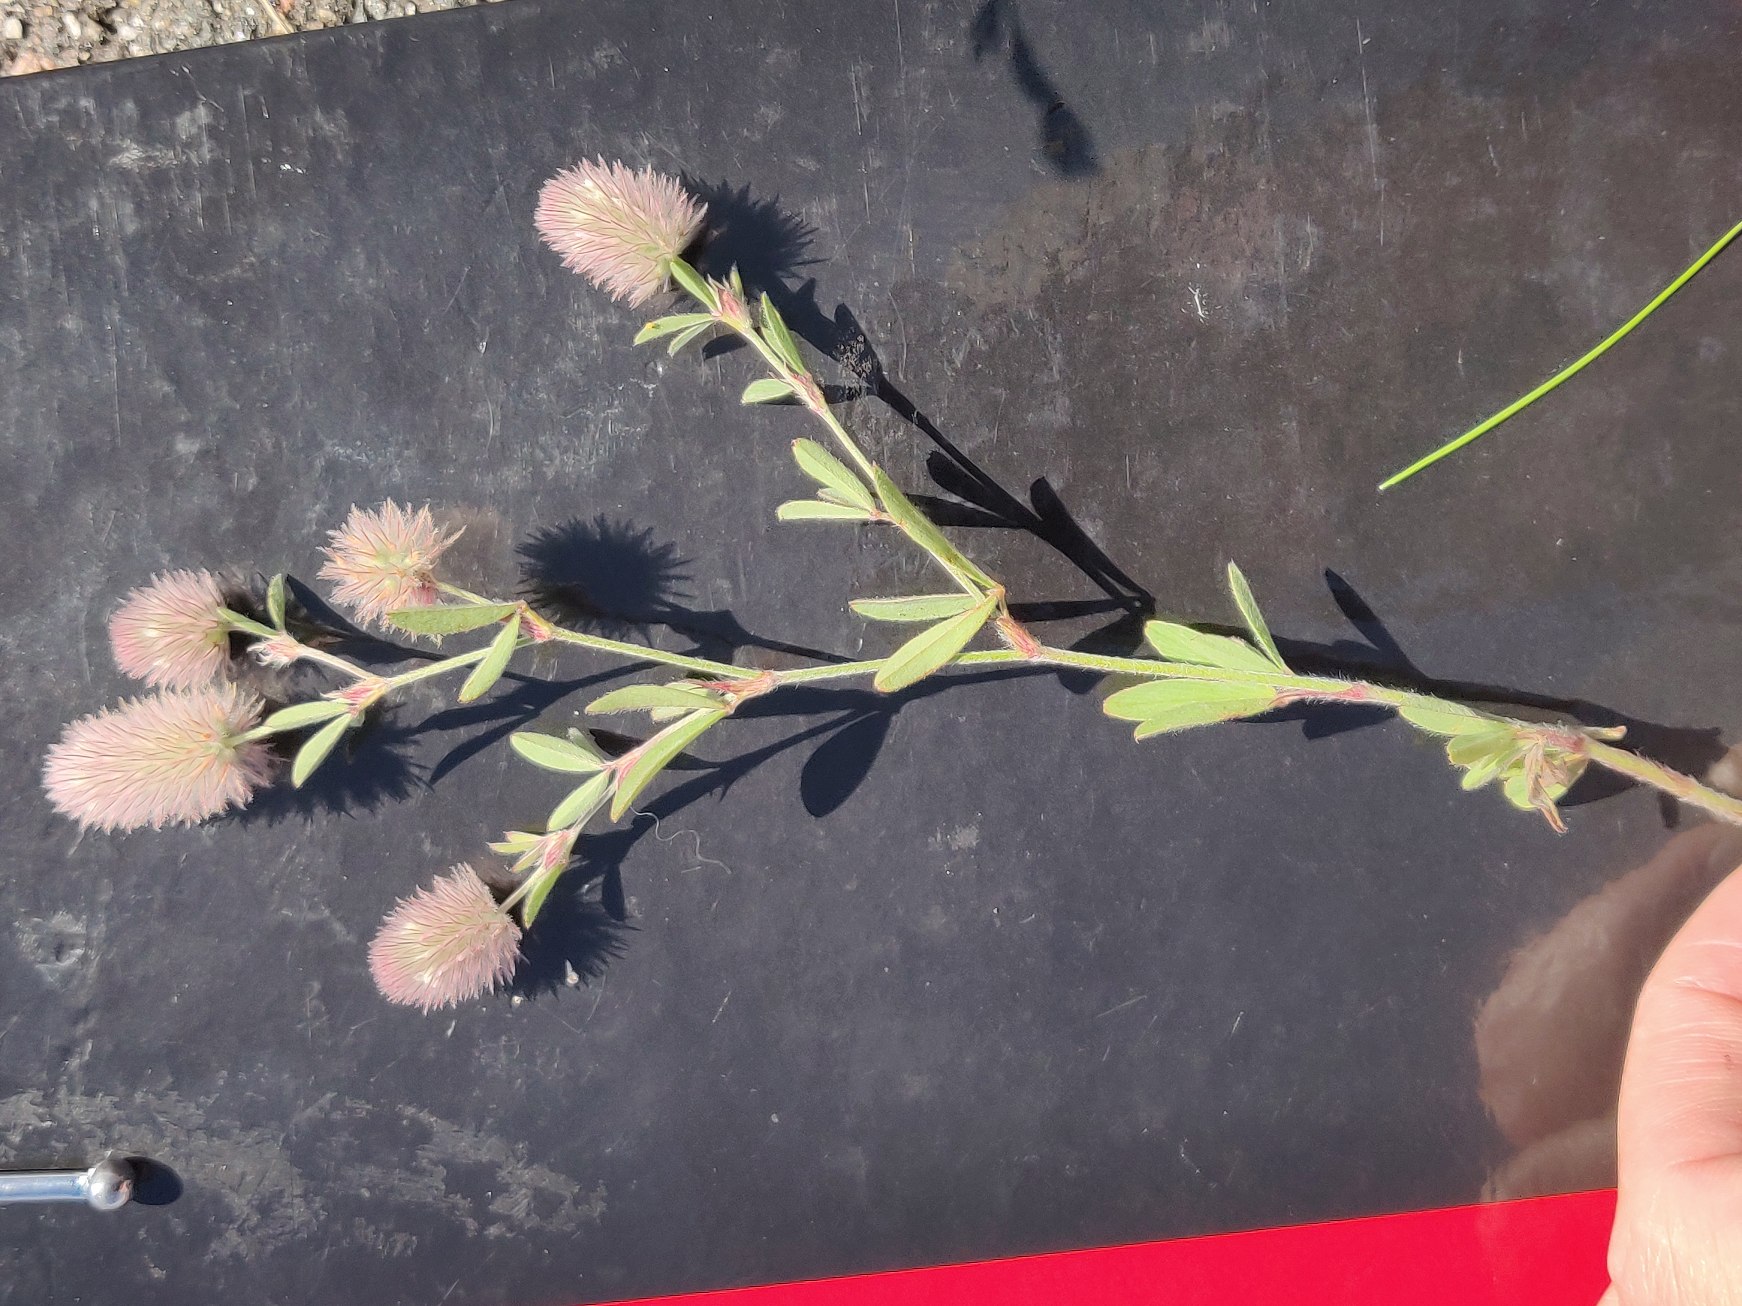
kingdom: Plantae
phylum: Tracheophyta
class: Magnoliopsida
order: Fabales
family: Fabaceae
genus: Trifolium
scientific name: Trifolium arvense
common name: Hare-kløver
